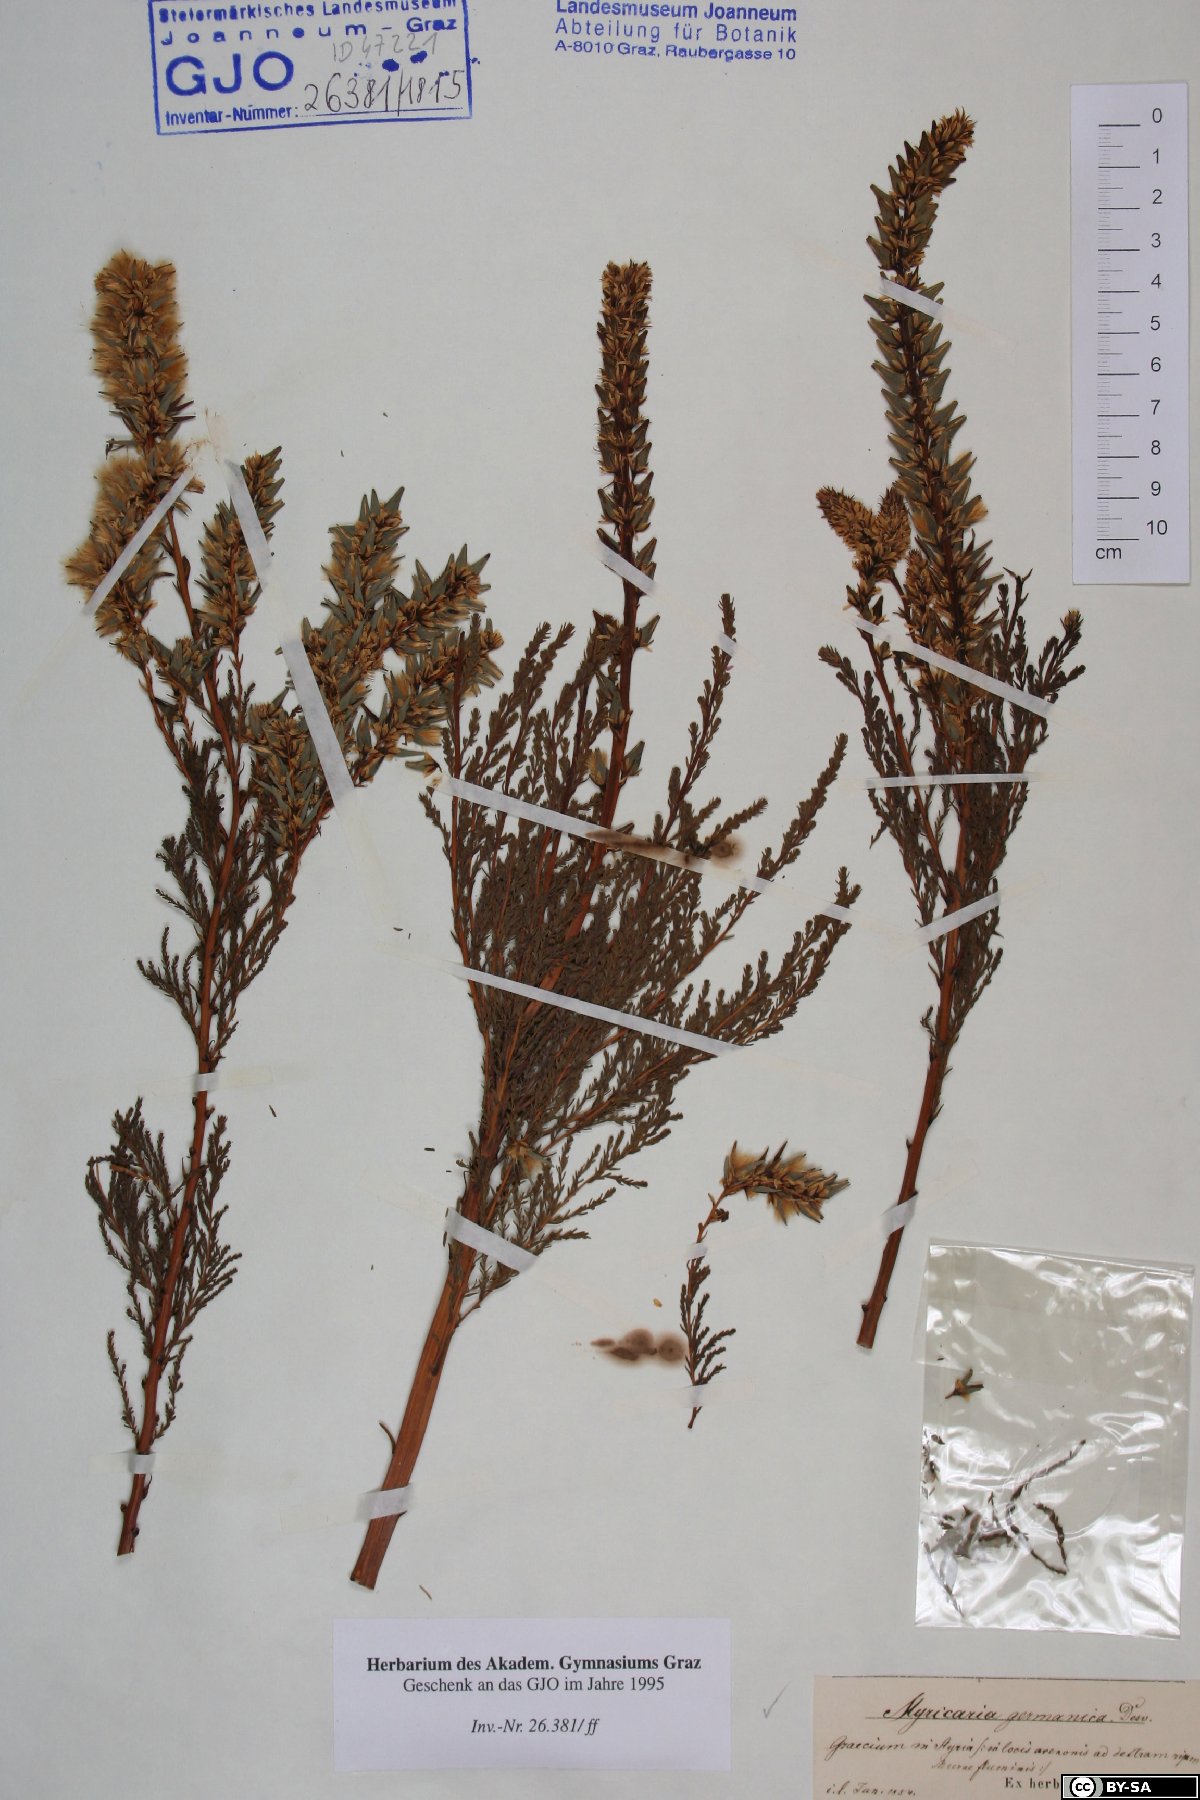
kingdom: Plantae
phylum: Tracheophyta
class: Magnoliopsida
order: Caryophyllales
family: Tamaricaceae
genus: Myricaria
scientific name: Myricaria germanica
